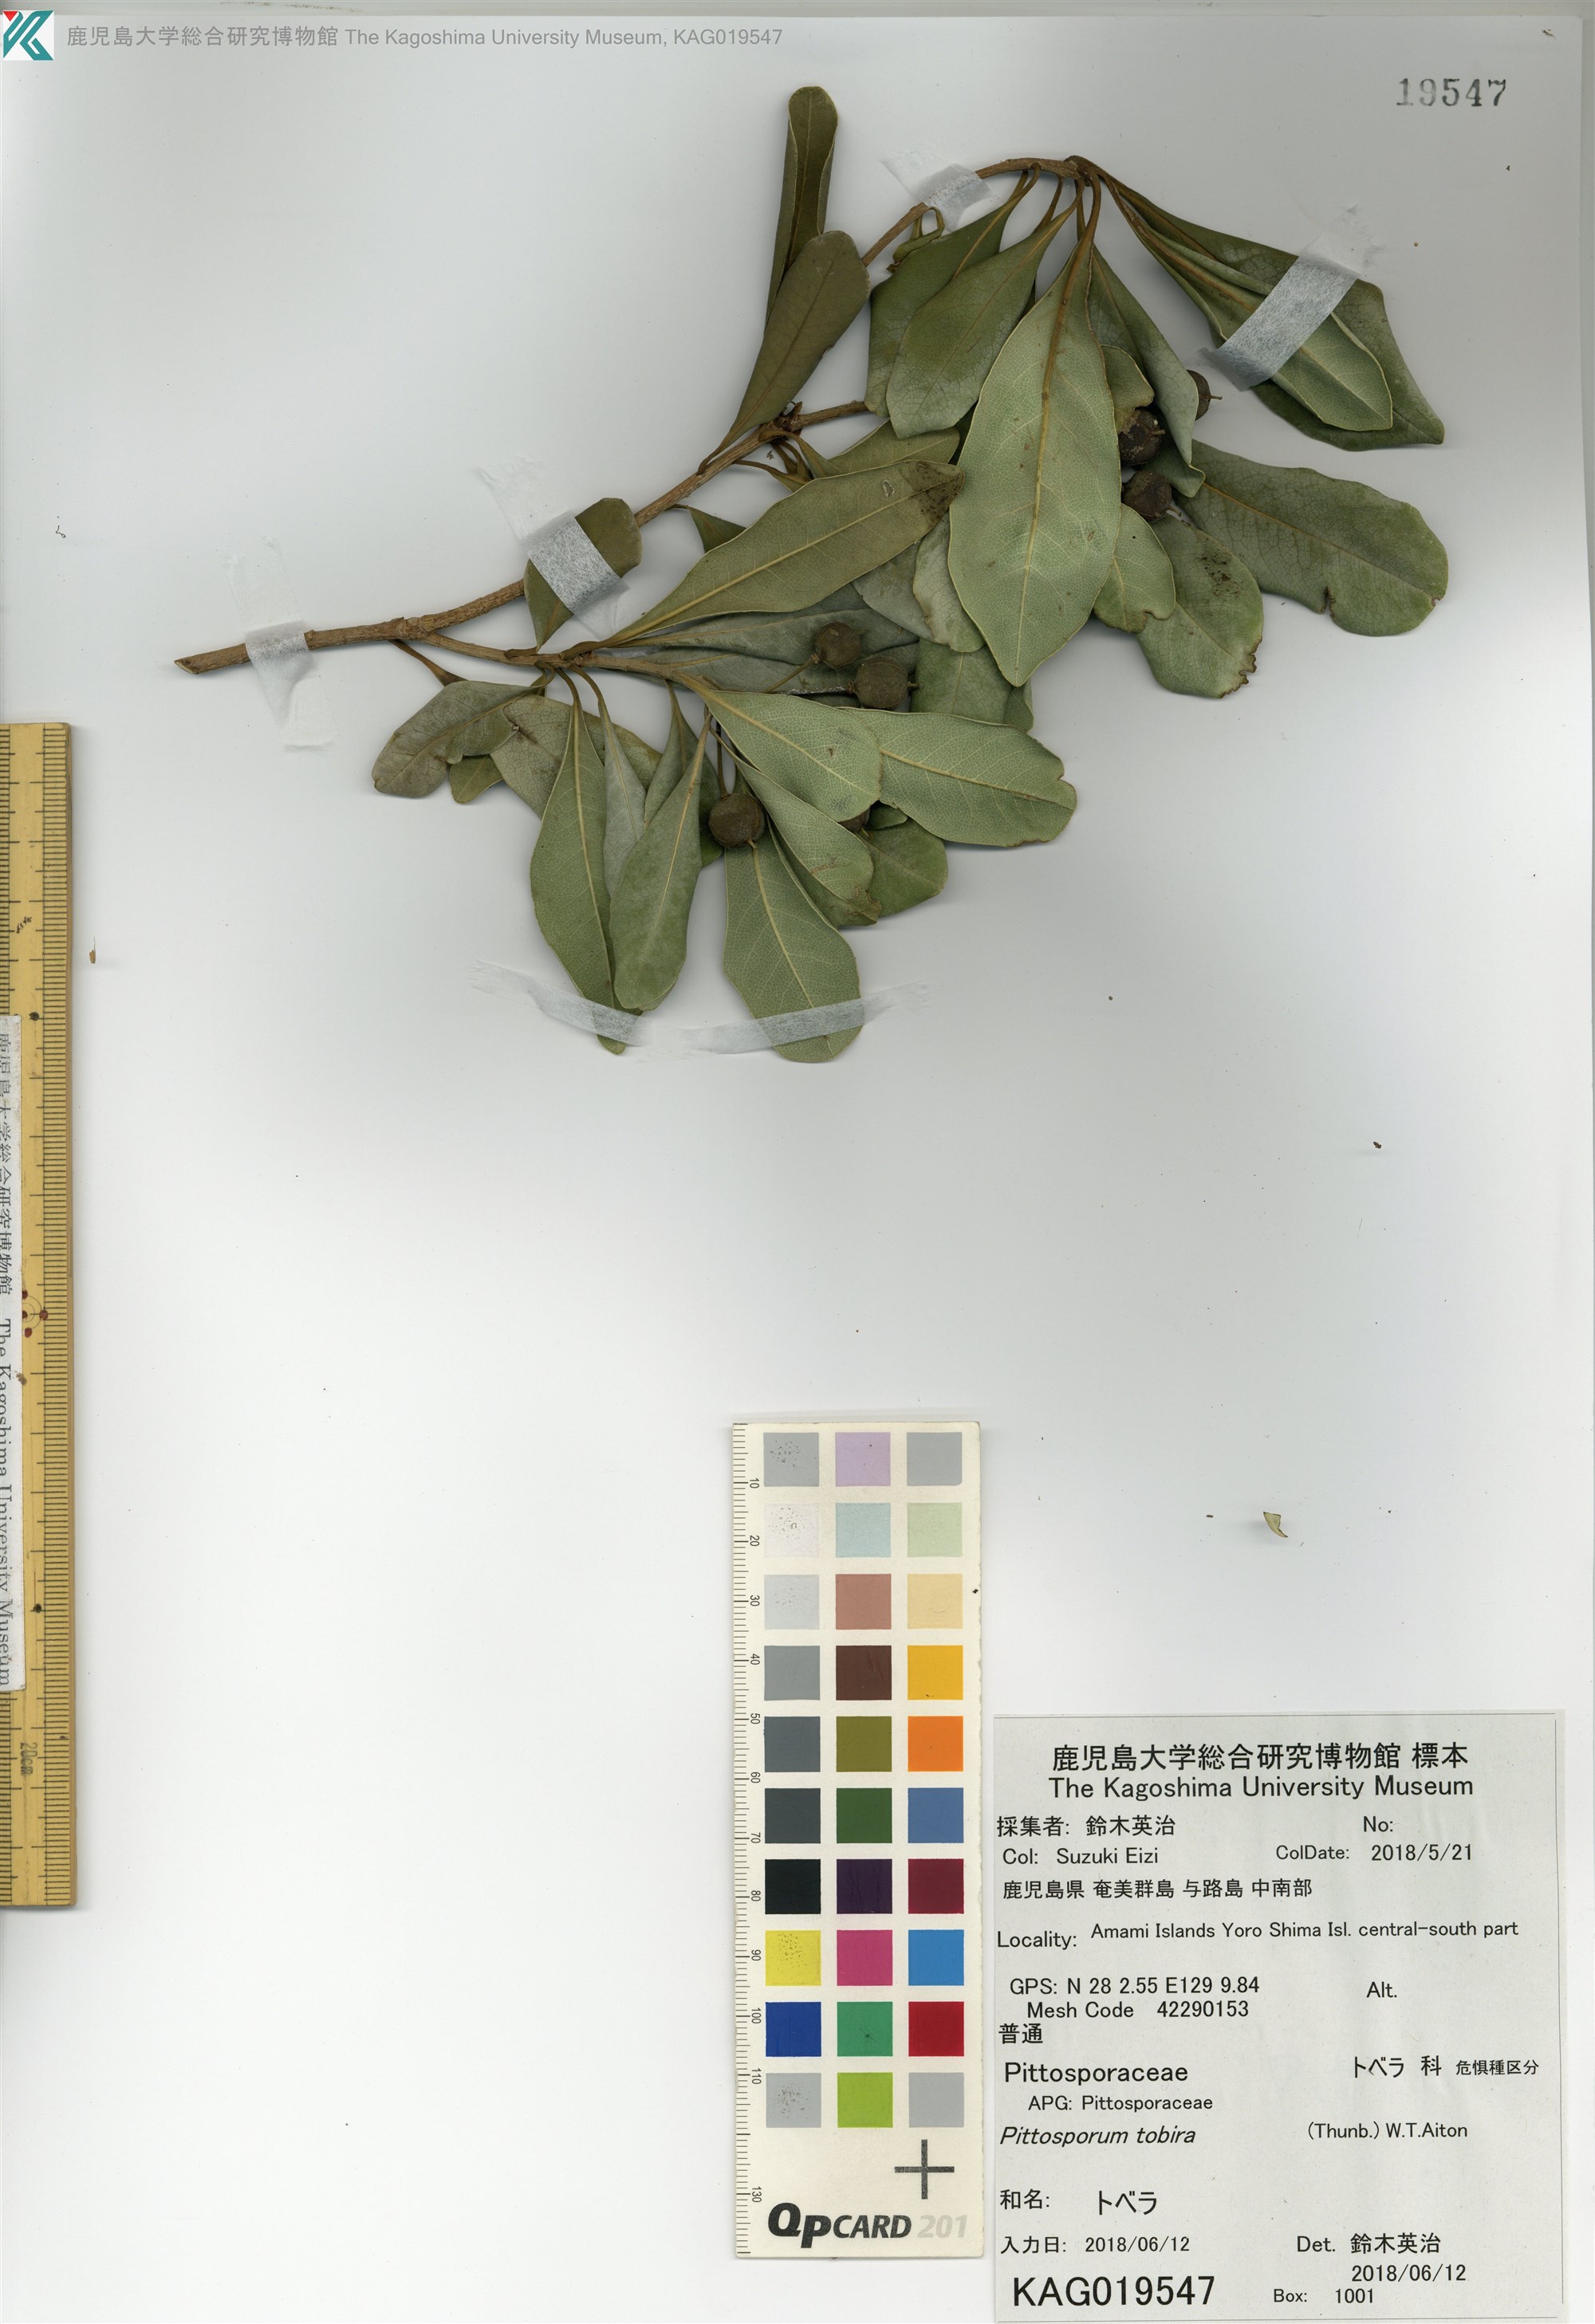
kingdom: Plantae
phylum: Tracheophyta
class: Magnoliopsida
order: Apiales
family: Pittosporaceae
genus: Pittosporum
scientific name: Pittosporum tobira
